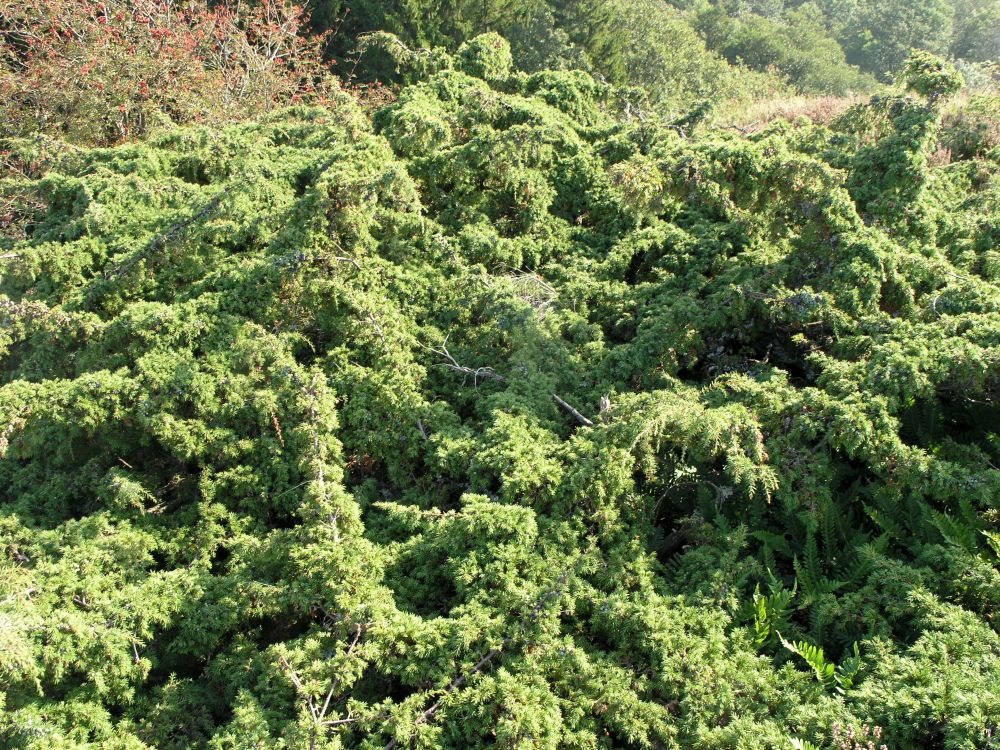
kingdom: Plantae
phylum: Tracheophyta
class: Pinopsida
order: Pinales
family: Cupressaceae
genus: Juniperus
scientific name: Juniperus communis
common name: Common juniper
